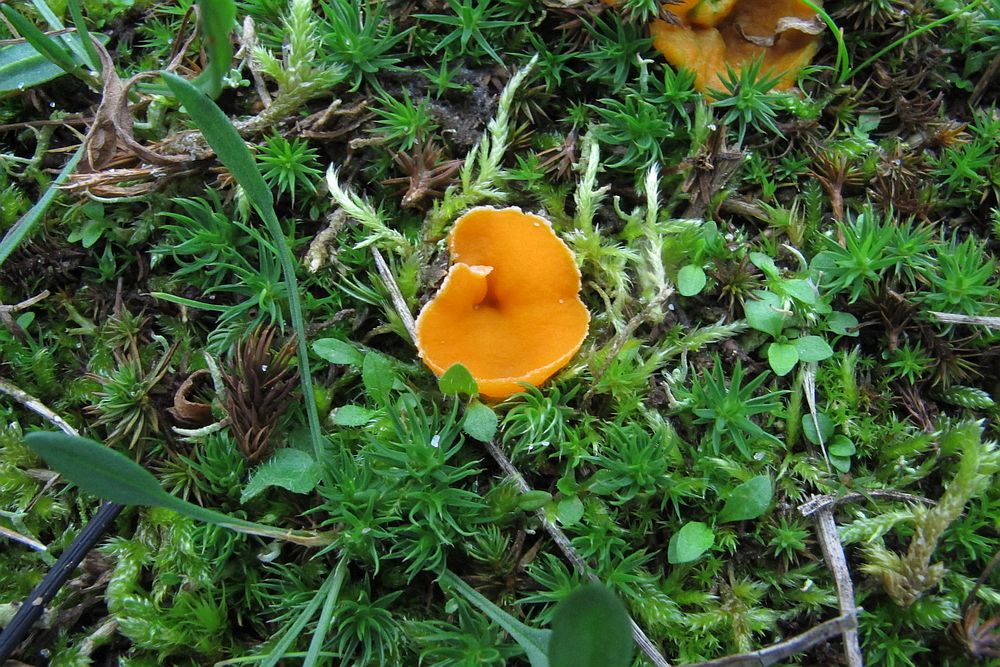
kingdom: Fungi
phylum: Ascomycota
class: Pezizomycetes
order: Pezizales
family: Pyronemataceae
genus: Neottiella
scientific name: Neottiella rutilans
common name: jomfruhår-mosbæger
